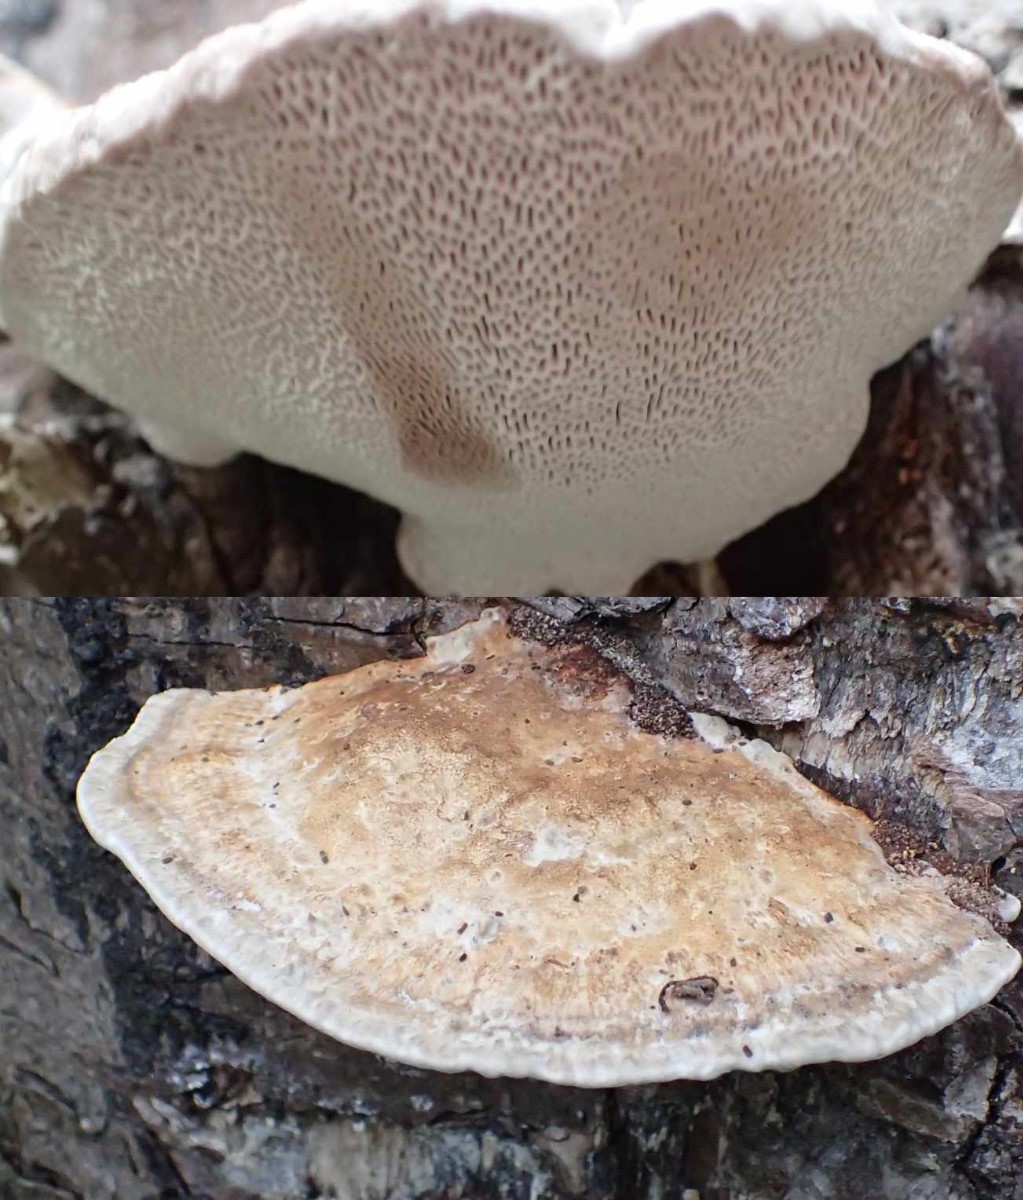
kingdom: Fungi
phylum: Basidiomycota
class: Agaricomycetes
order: Polyporales
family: Polyporaceae
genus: Daedaleopsis
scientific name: Daedaleopsis confragosa
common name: rødmende læderporesvamp
